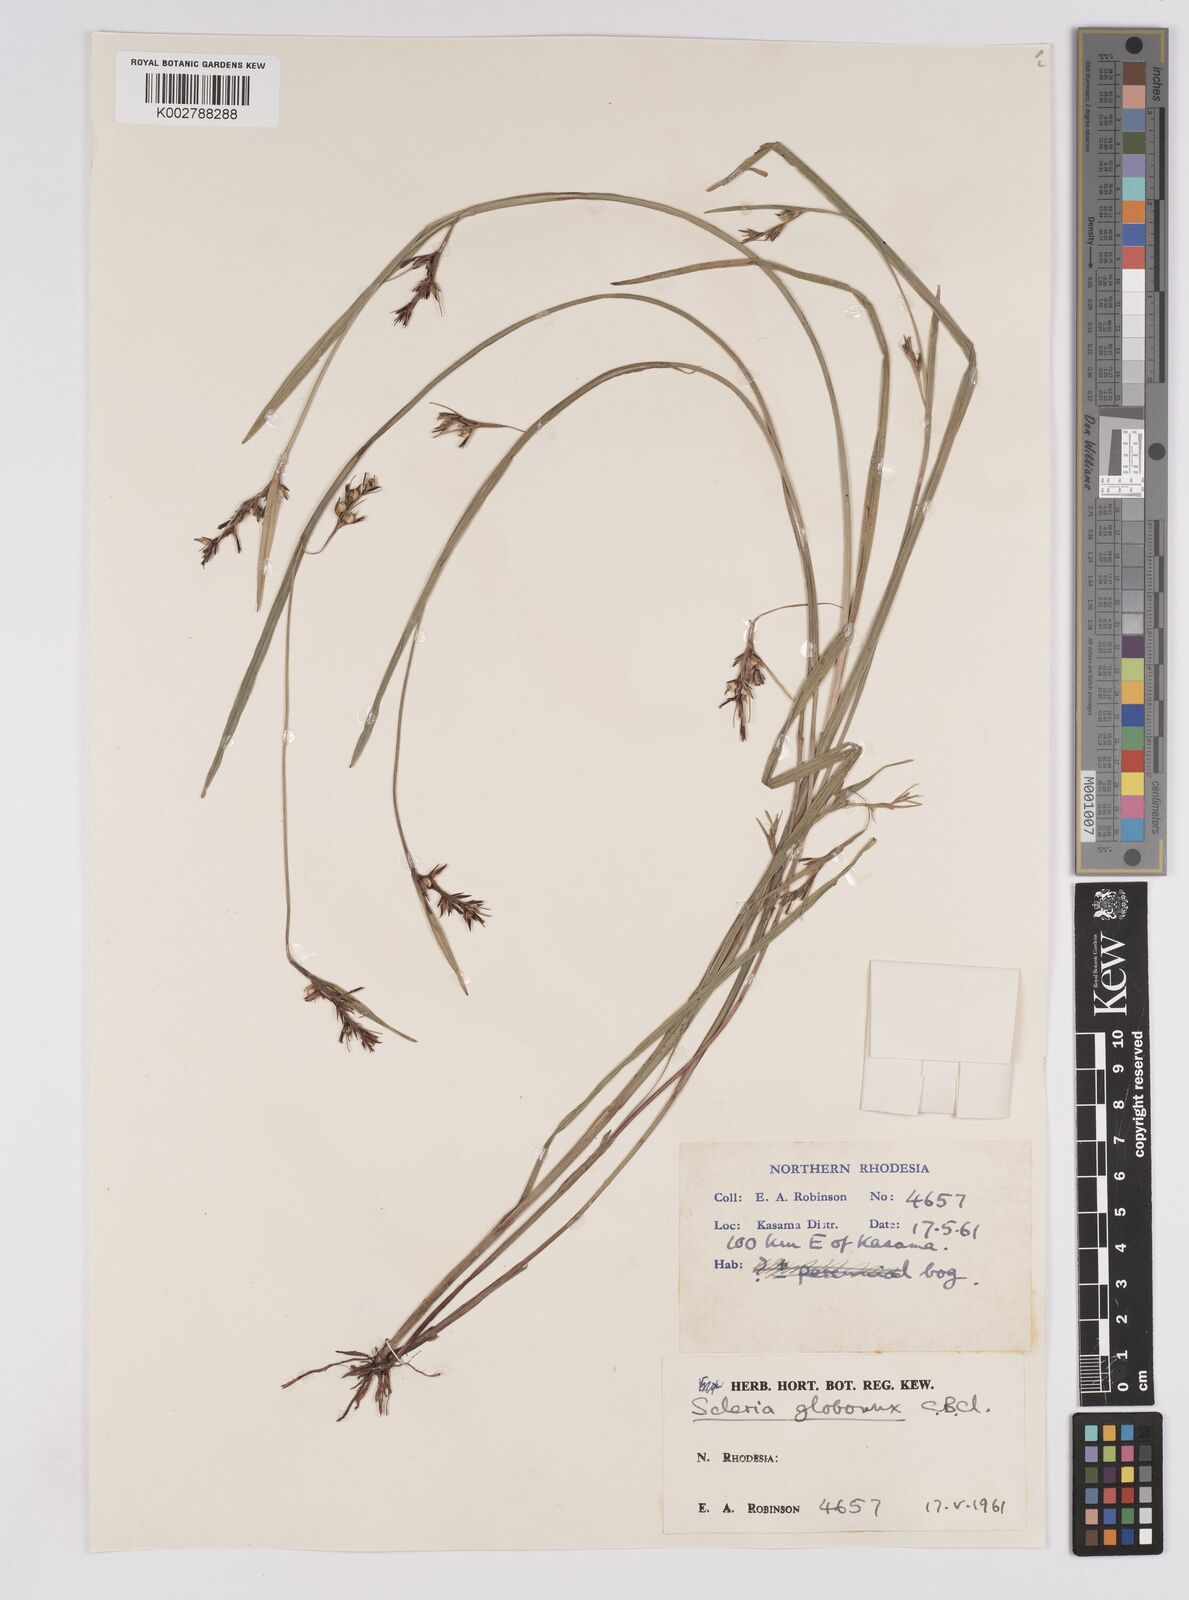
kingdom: Plantae
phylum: Tracheophyta
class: Liliopsida
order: Poales
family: Cyperaceae
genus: Scleria
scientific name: Scleria globonux
